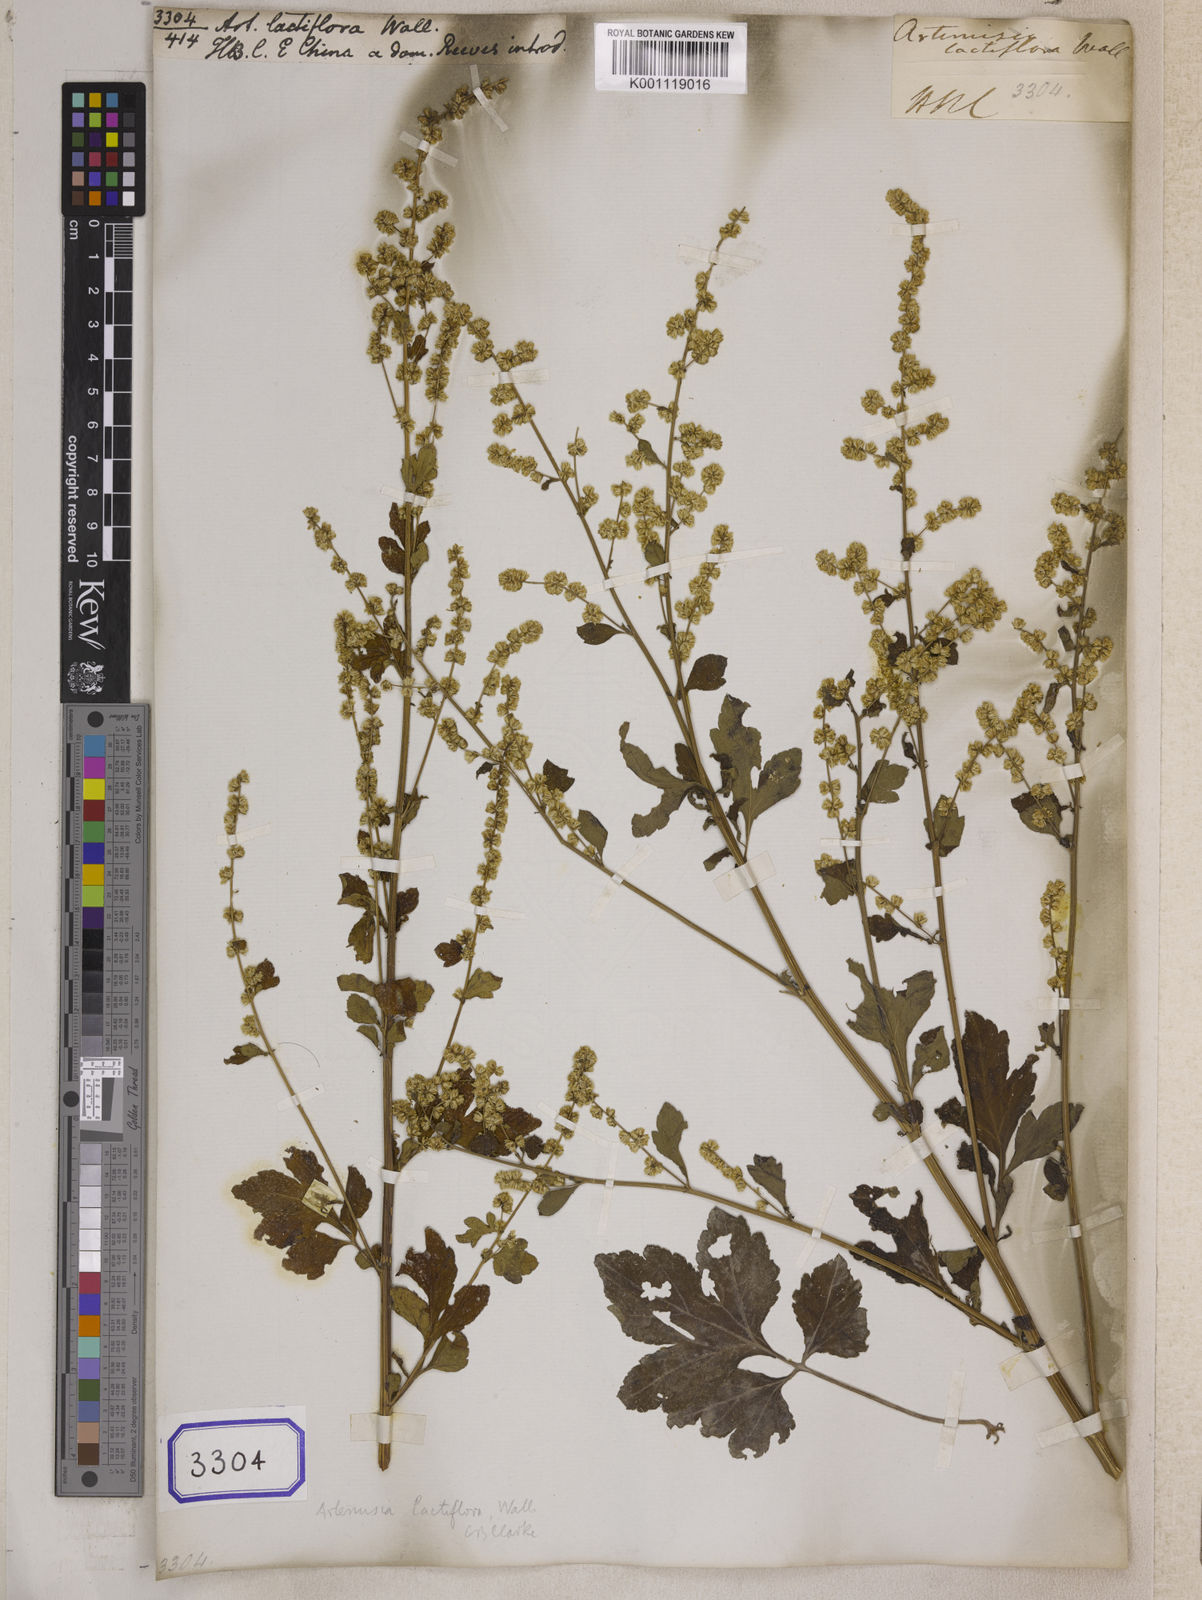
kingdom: Plantae
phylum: Tracheophyta
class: Magnoliopsida
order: Asterales
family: Asteraceae
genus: Artemisia
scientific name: Artemisia
